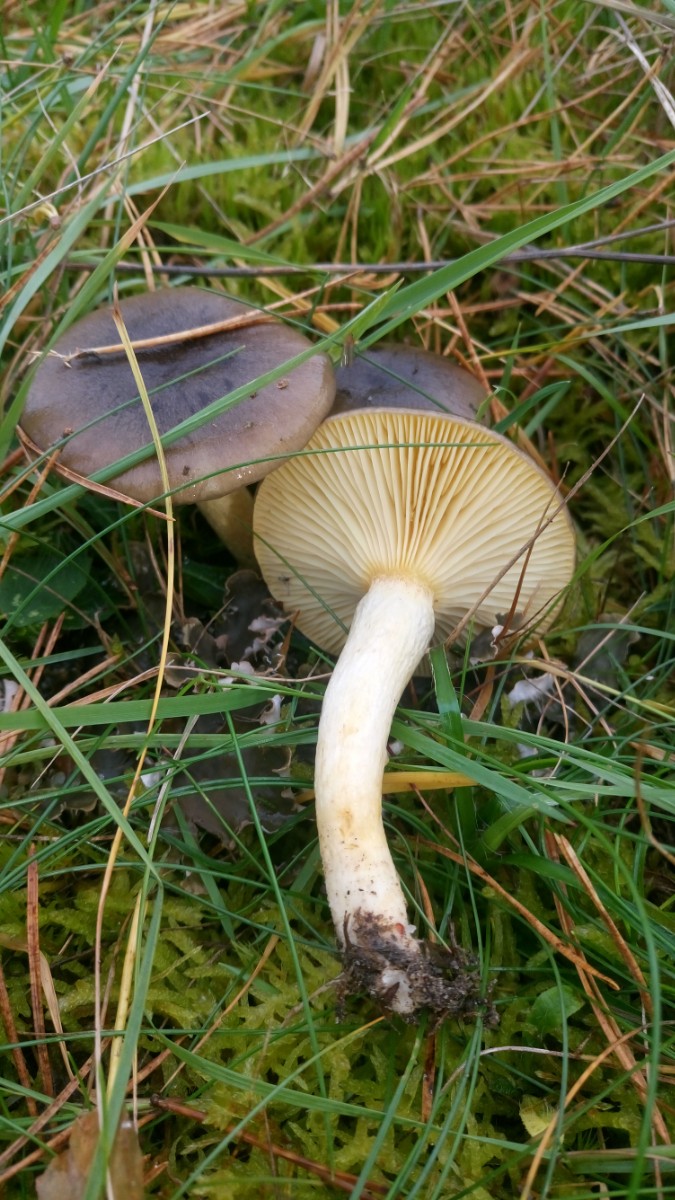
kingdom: Fungi
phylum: Basidiomycota
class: Agaricomycetes
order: Agaricales
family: Hygrophoraceae
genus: Hygrophorus
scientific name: Hygrophorus hypothejus
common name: frost-sneglehat
